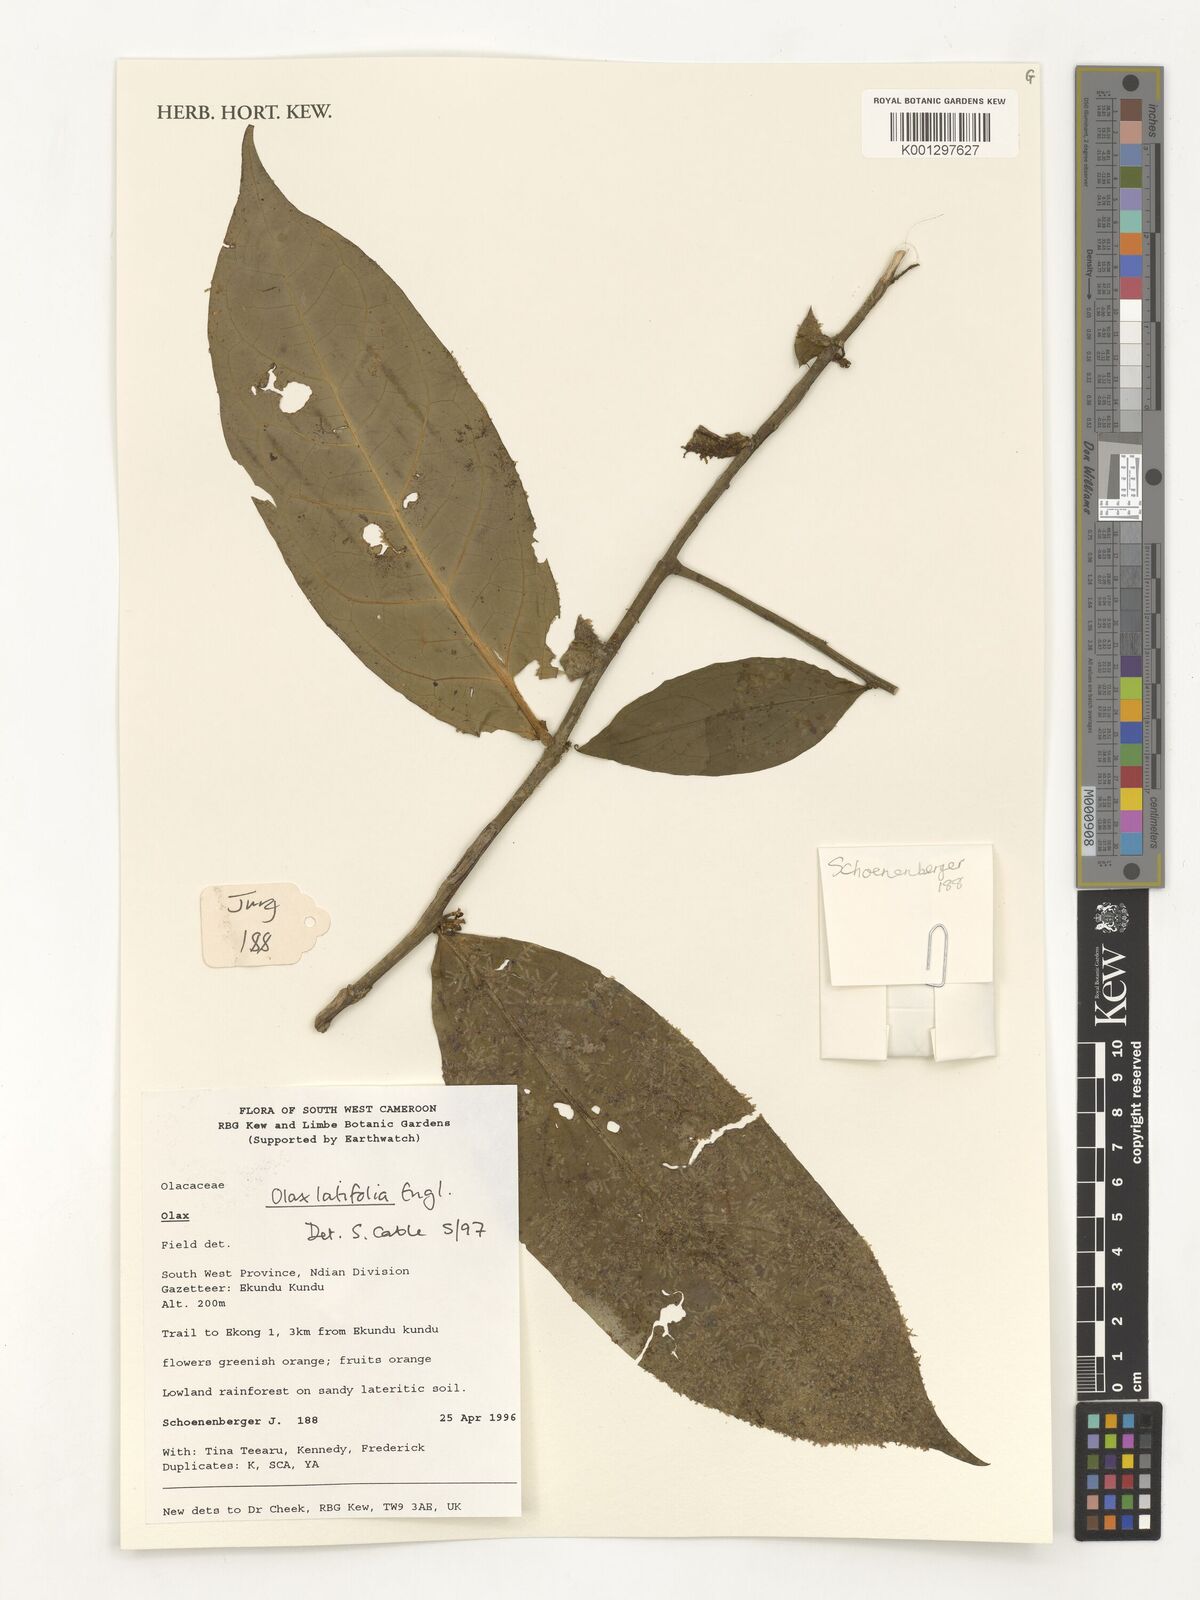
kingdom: Plantae
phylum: Tracheophyta
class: Magnoliopsida
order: Santalales
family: Olacaceae
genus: Olax
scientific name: Olax latifolia
